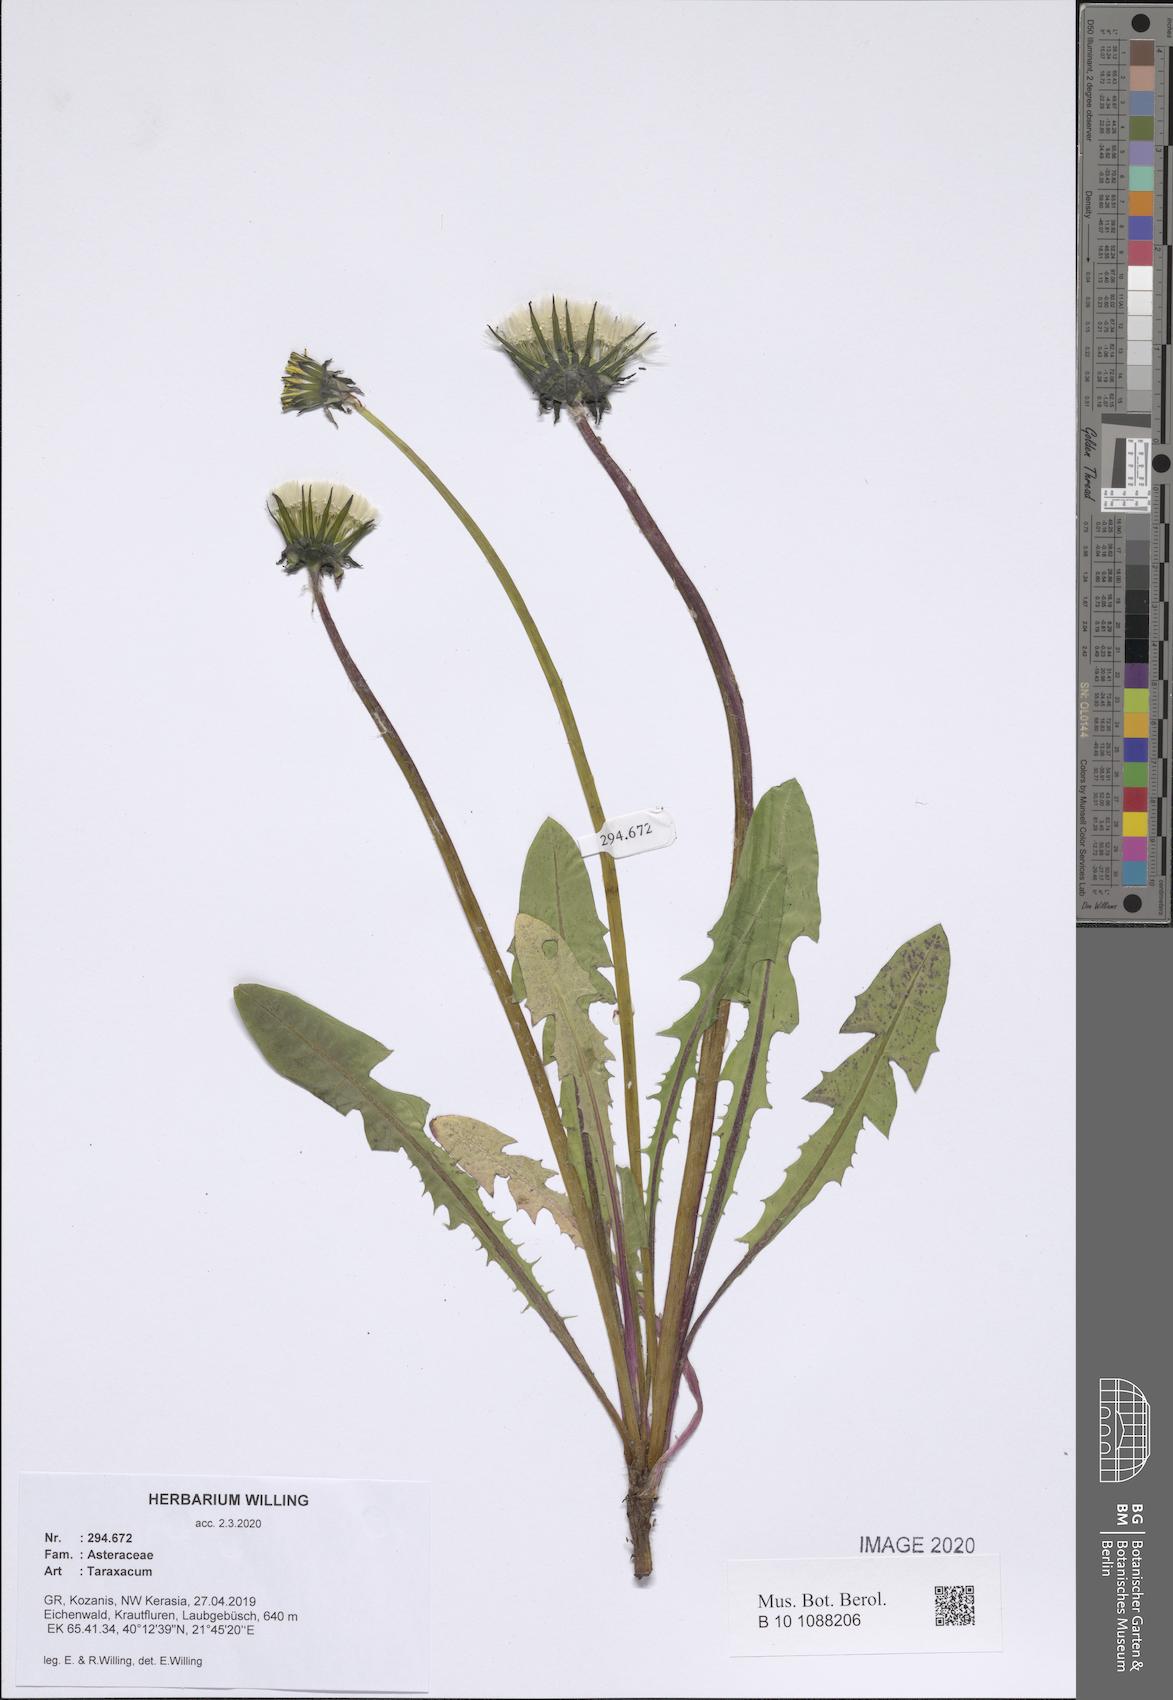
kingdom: Plantae
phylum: Tracheophyta
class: Magnoliopsida
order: Asterales
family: Asteraceae
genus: Taraxacum
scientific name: Taraxacum
